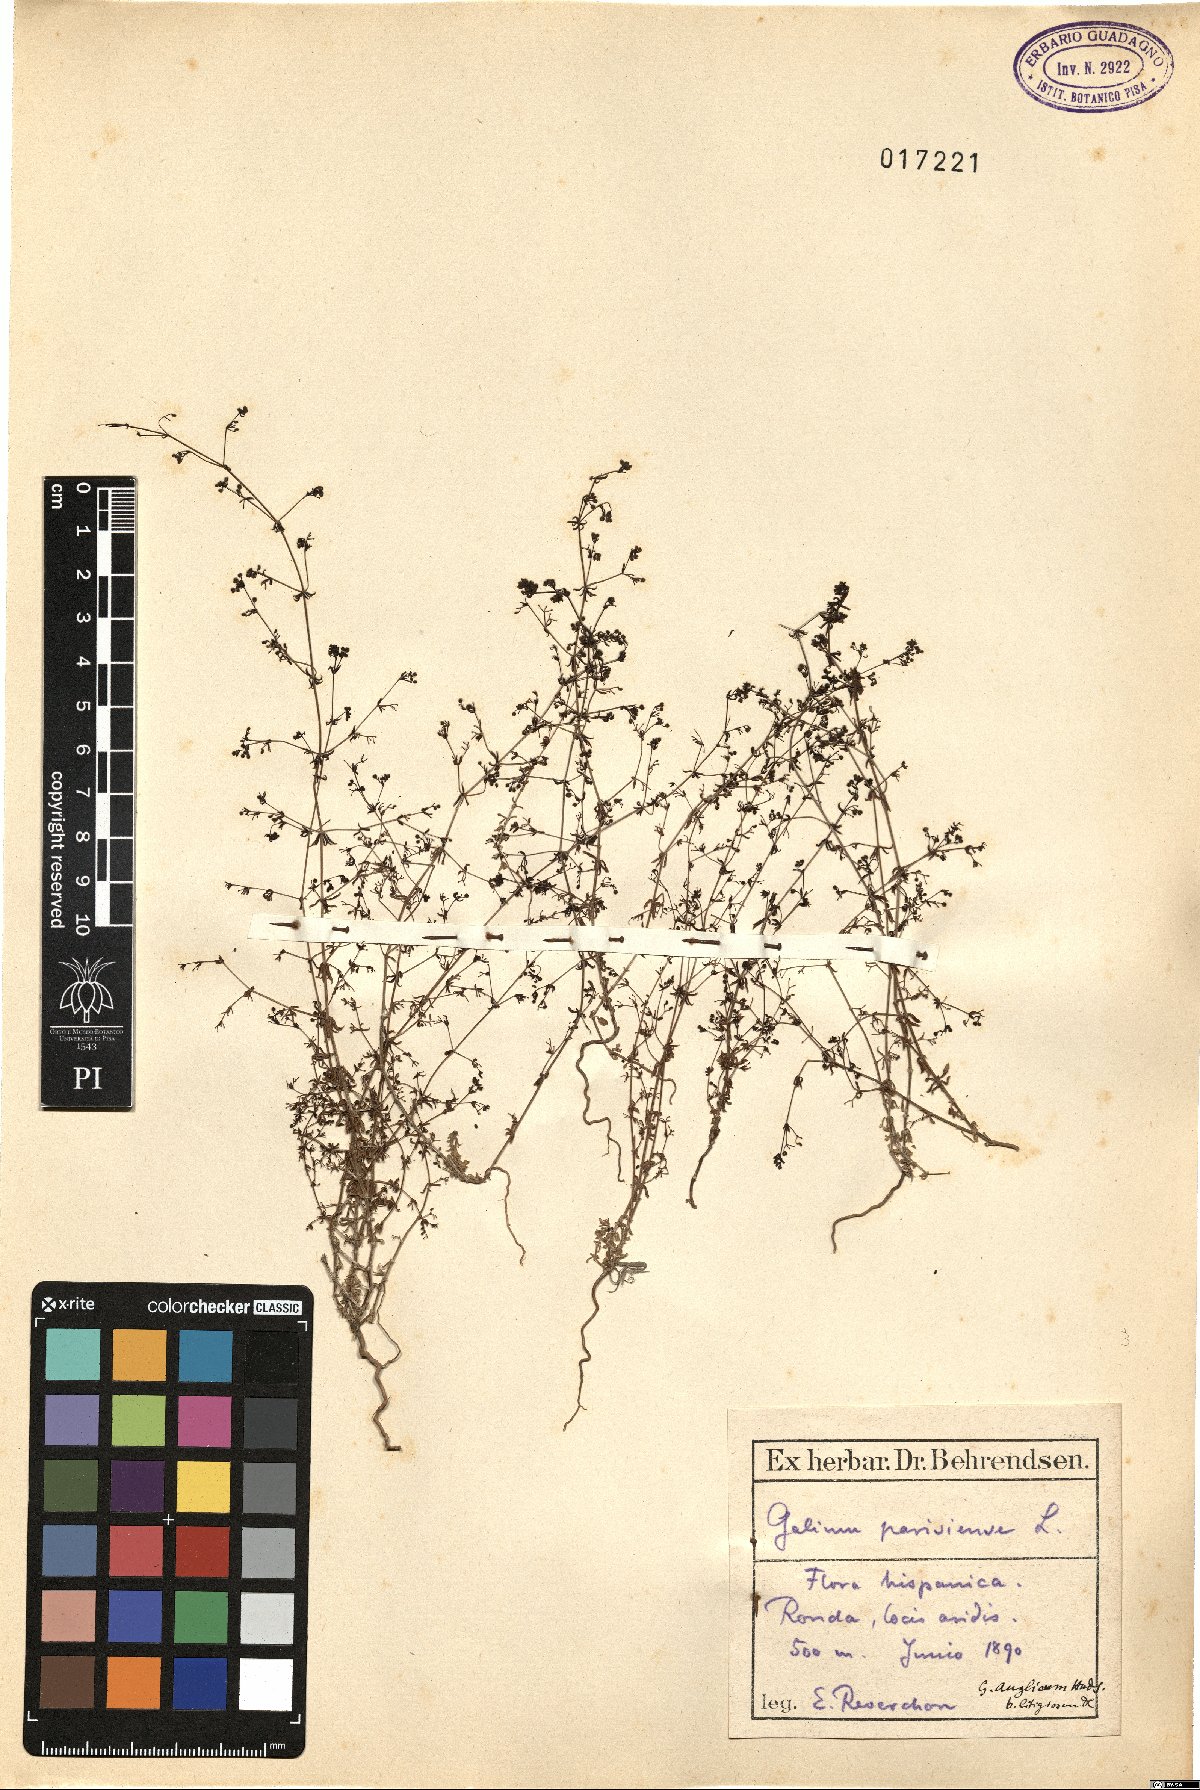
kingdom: Plantae
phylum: Tracheophyta
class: Magnoliopsida
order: Gentianales
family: Rubiaceae
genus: Galium
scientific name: Galium parisiense
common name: Wall bedstraw
